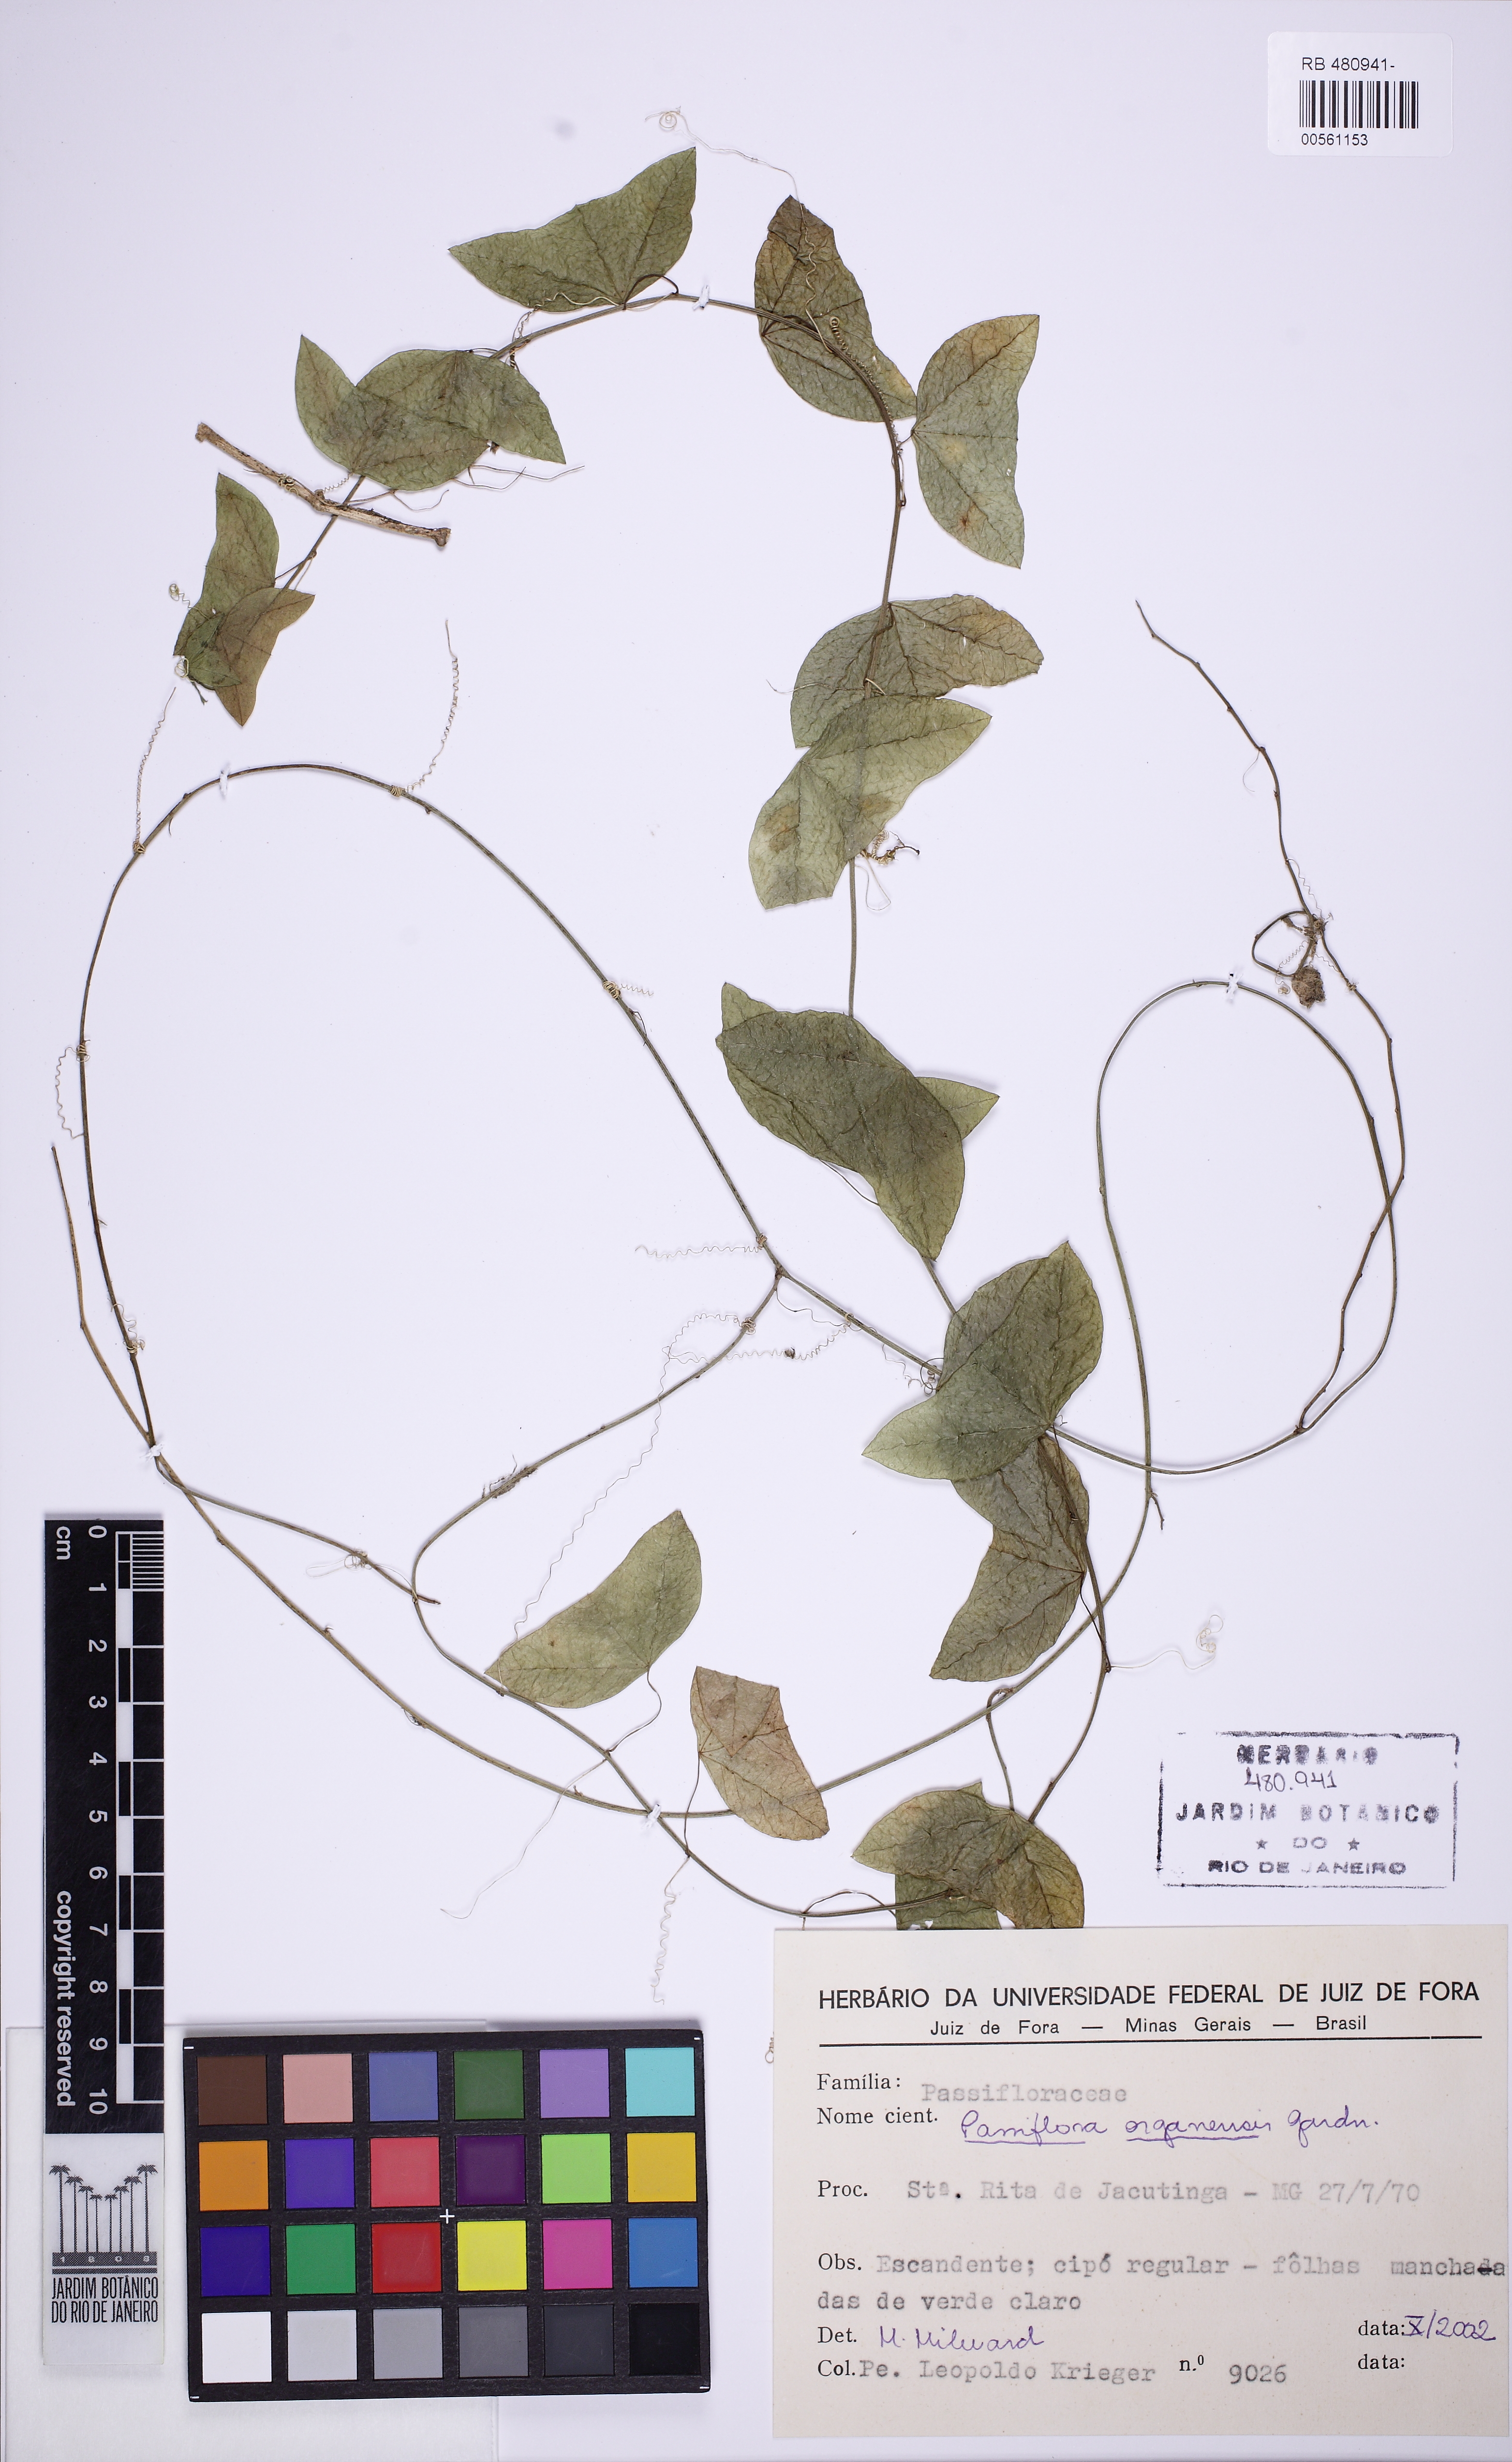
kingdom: Plantae
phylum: Tracheophyta
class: Magnoliopsida
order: Malpighiales
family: Passifloraceae
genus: Passiflora
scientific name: Passiflora porophylla
